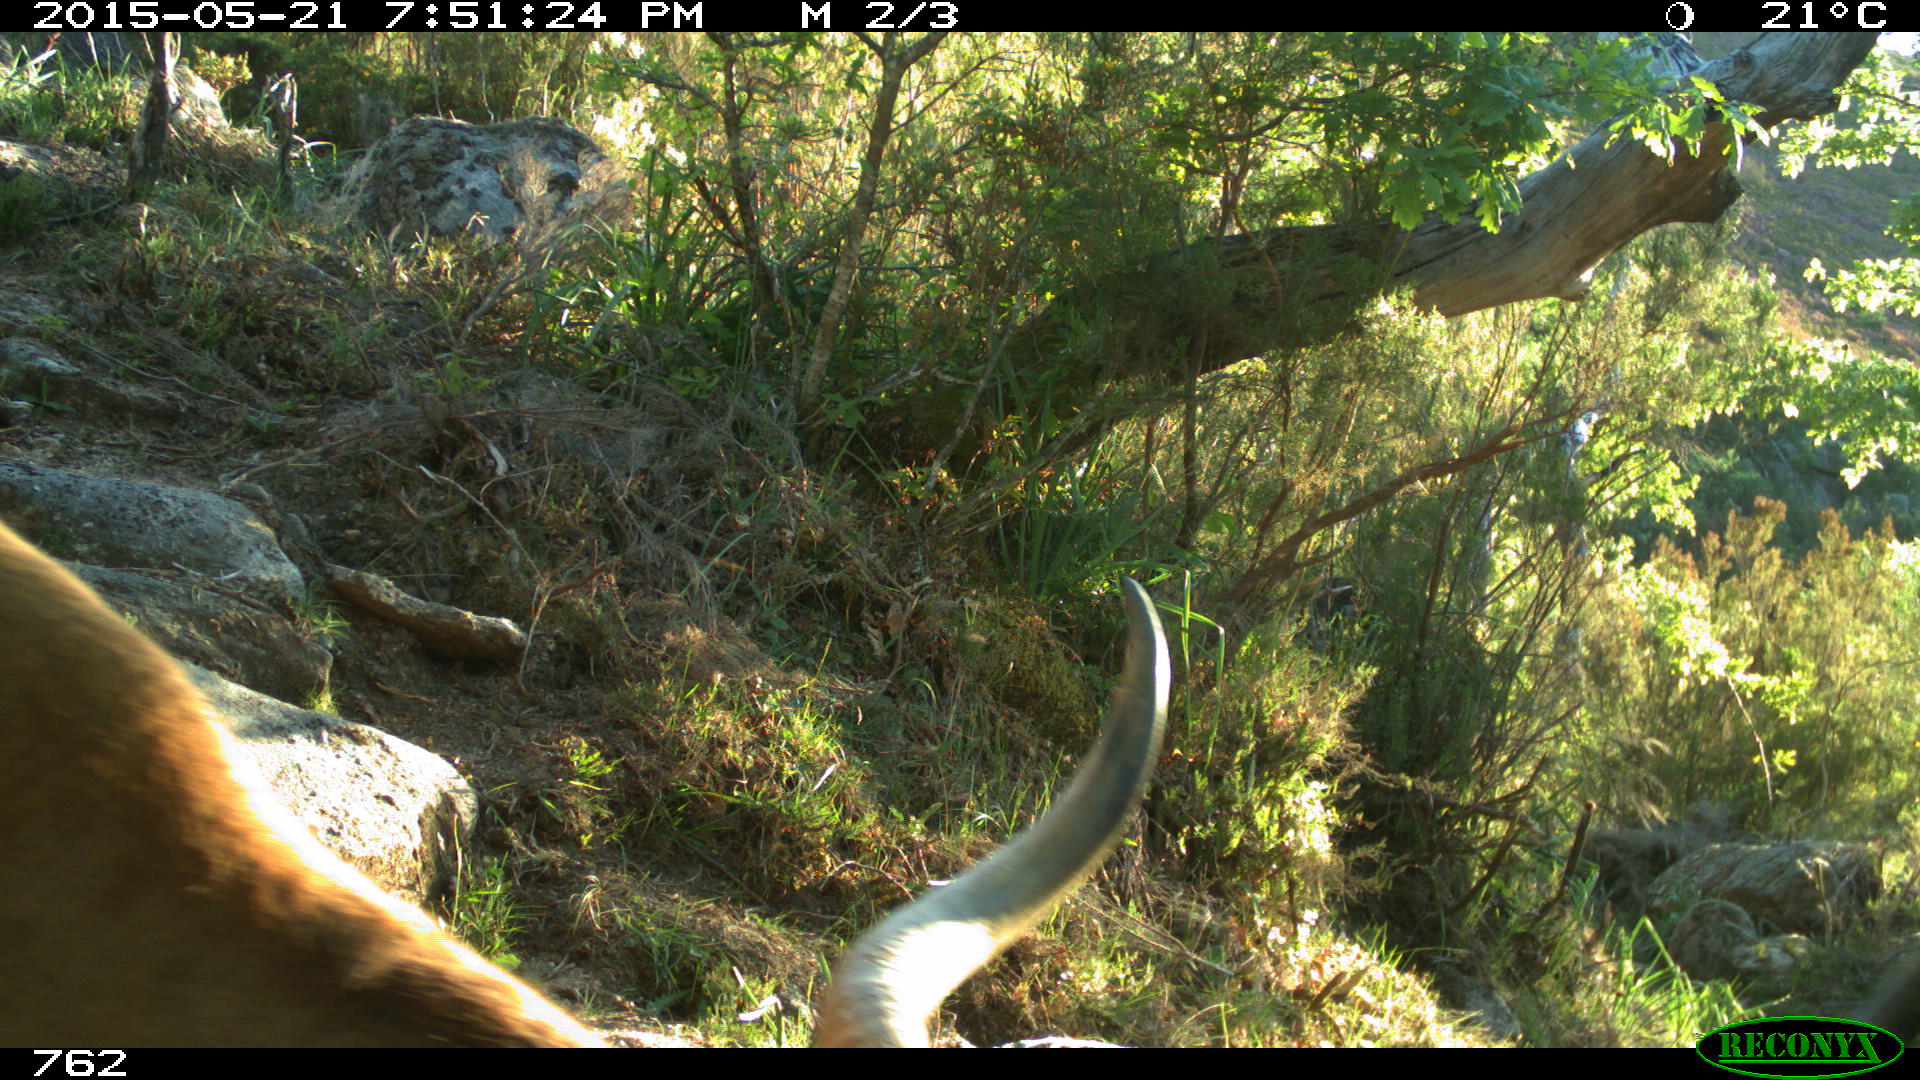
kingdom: Animalia
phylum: Chordata
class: Mammalia
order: Artiodactyla
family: Bovidae
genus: Bos
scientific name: Bos taurus
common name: Domesticated cattle
